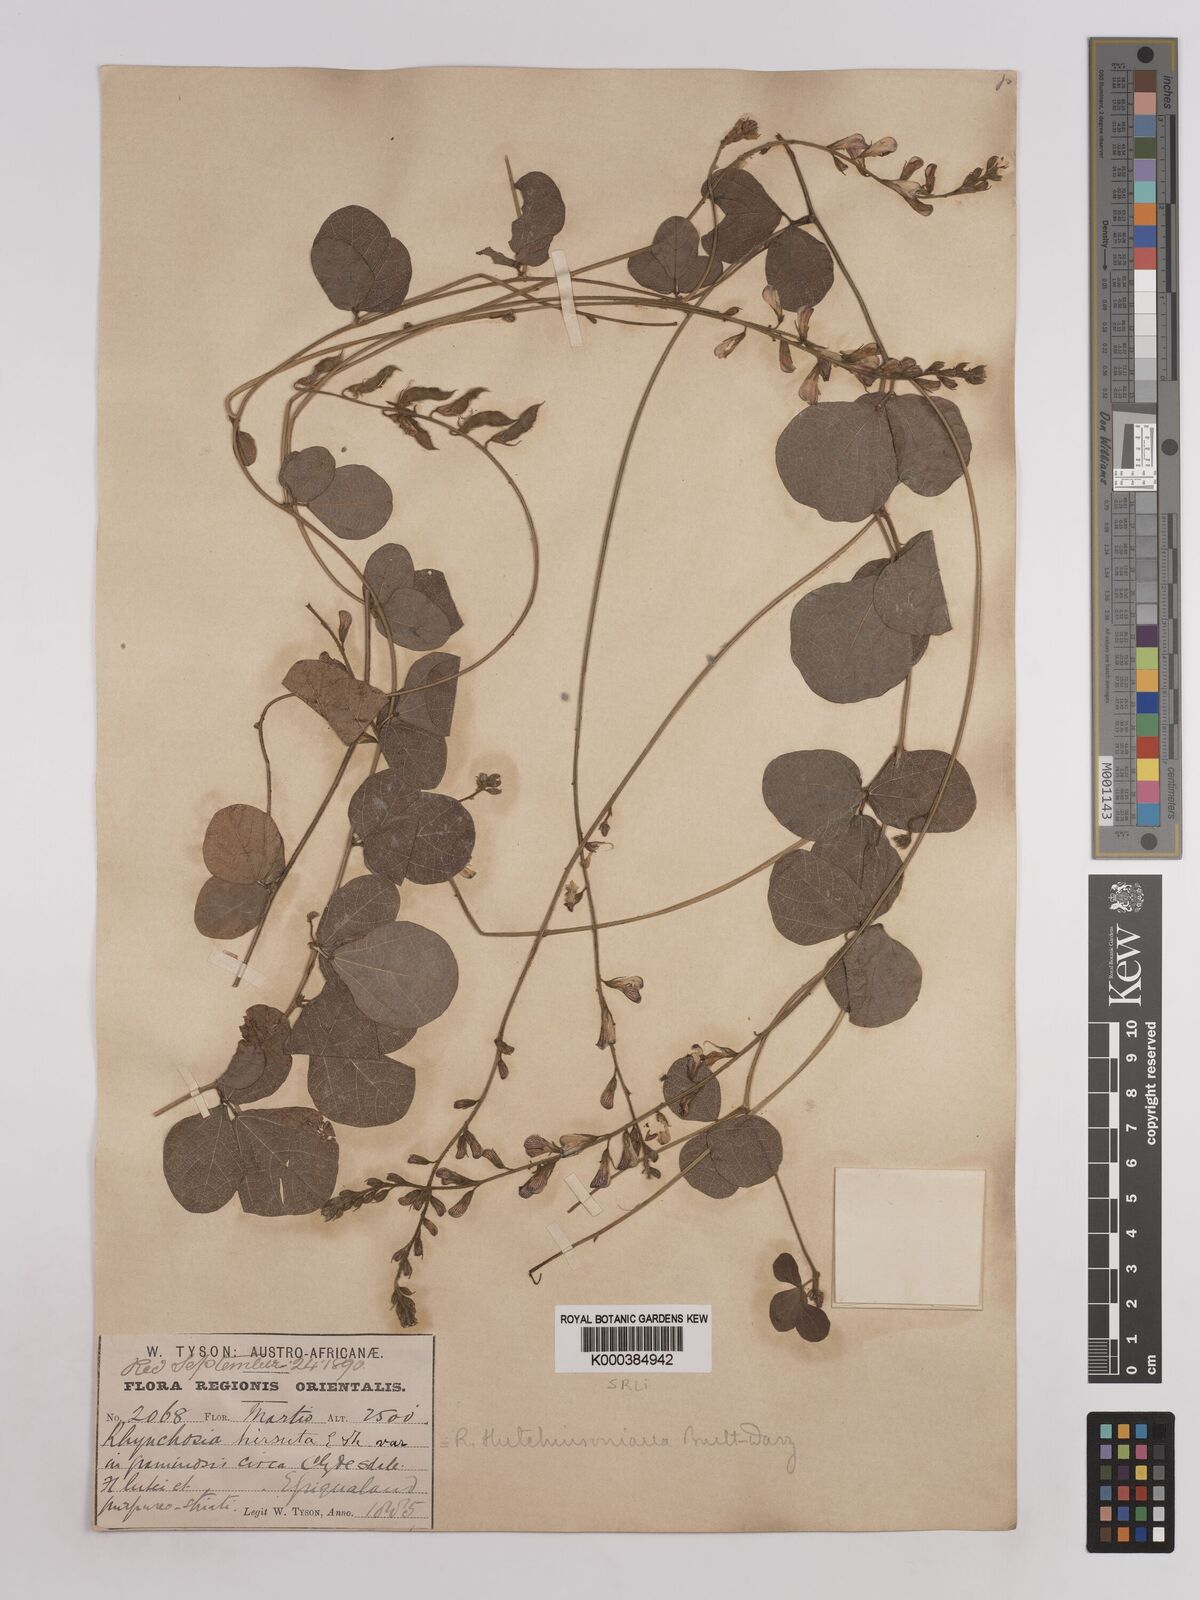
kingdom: Plantae
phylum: Tracheophyta
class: Magnoliopsida
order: Fabales
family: Fabaceae
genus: Rhynchosia
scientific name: Rhynchosia pentheri
